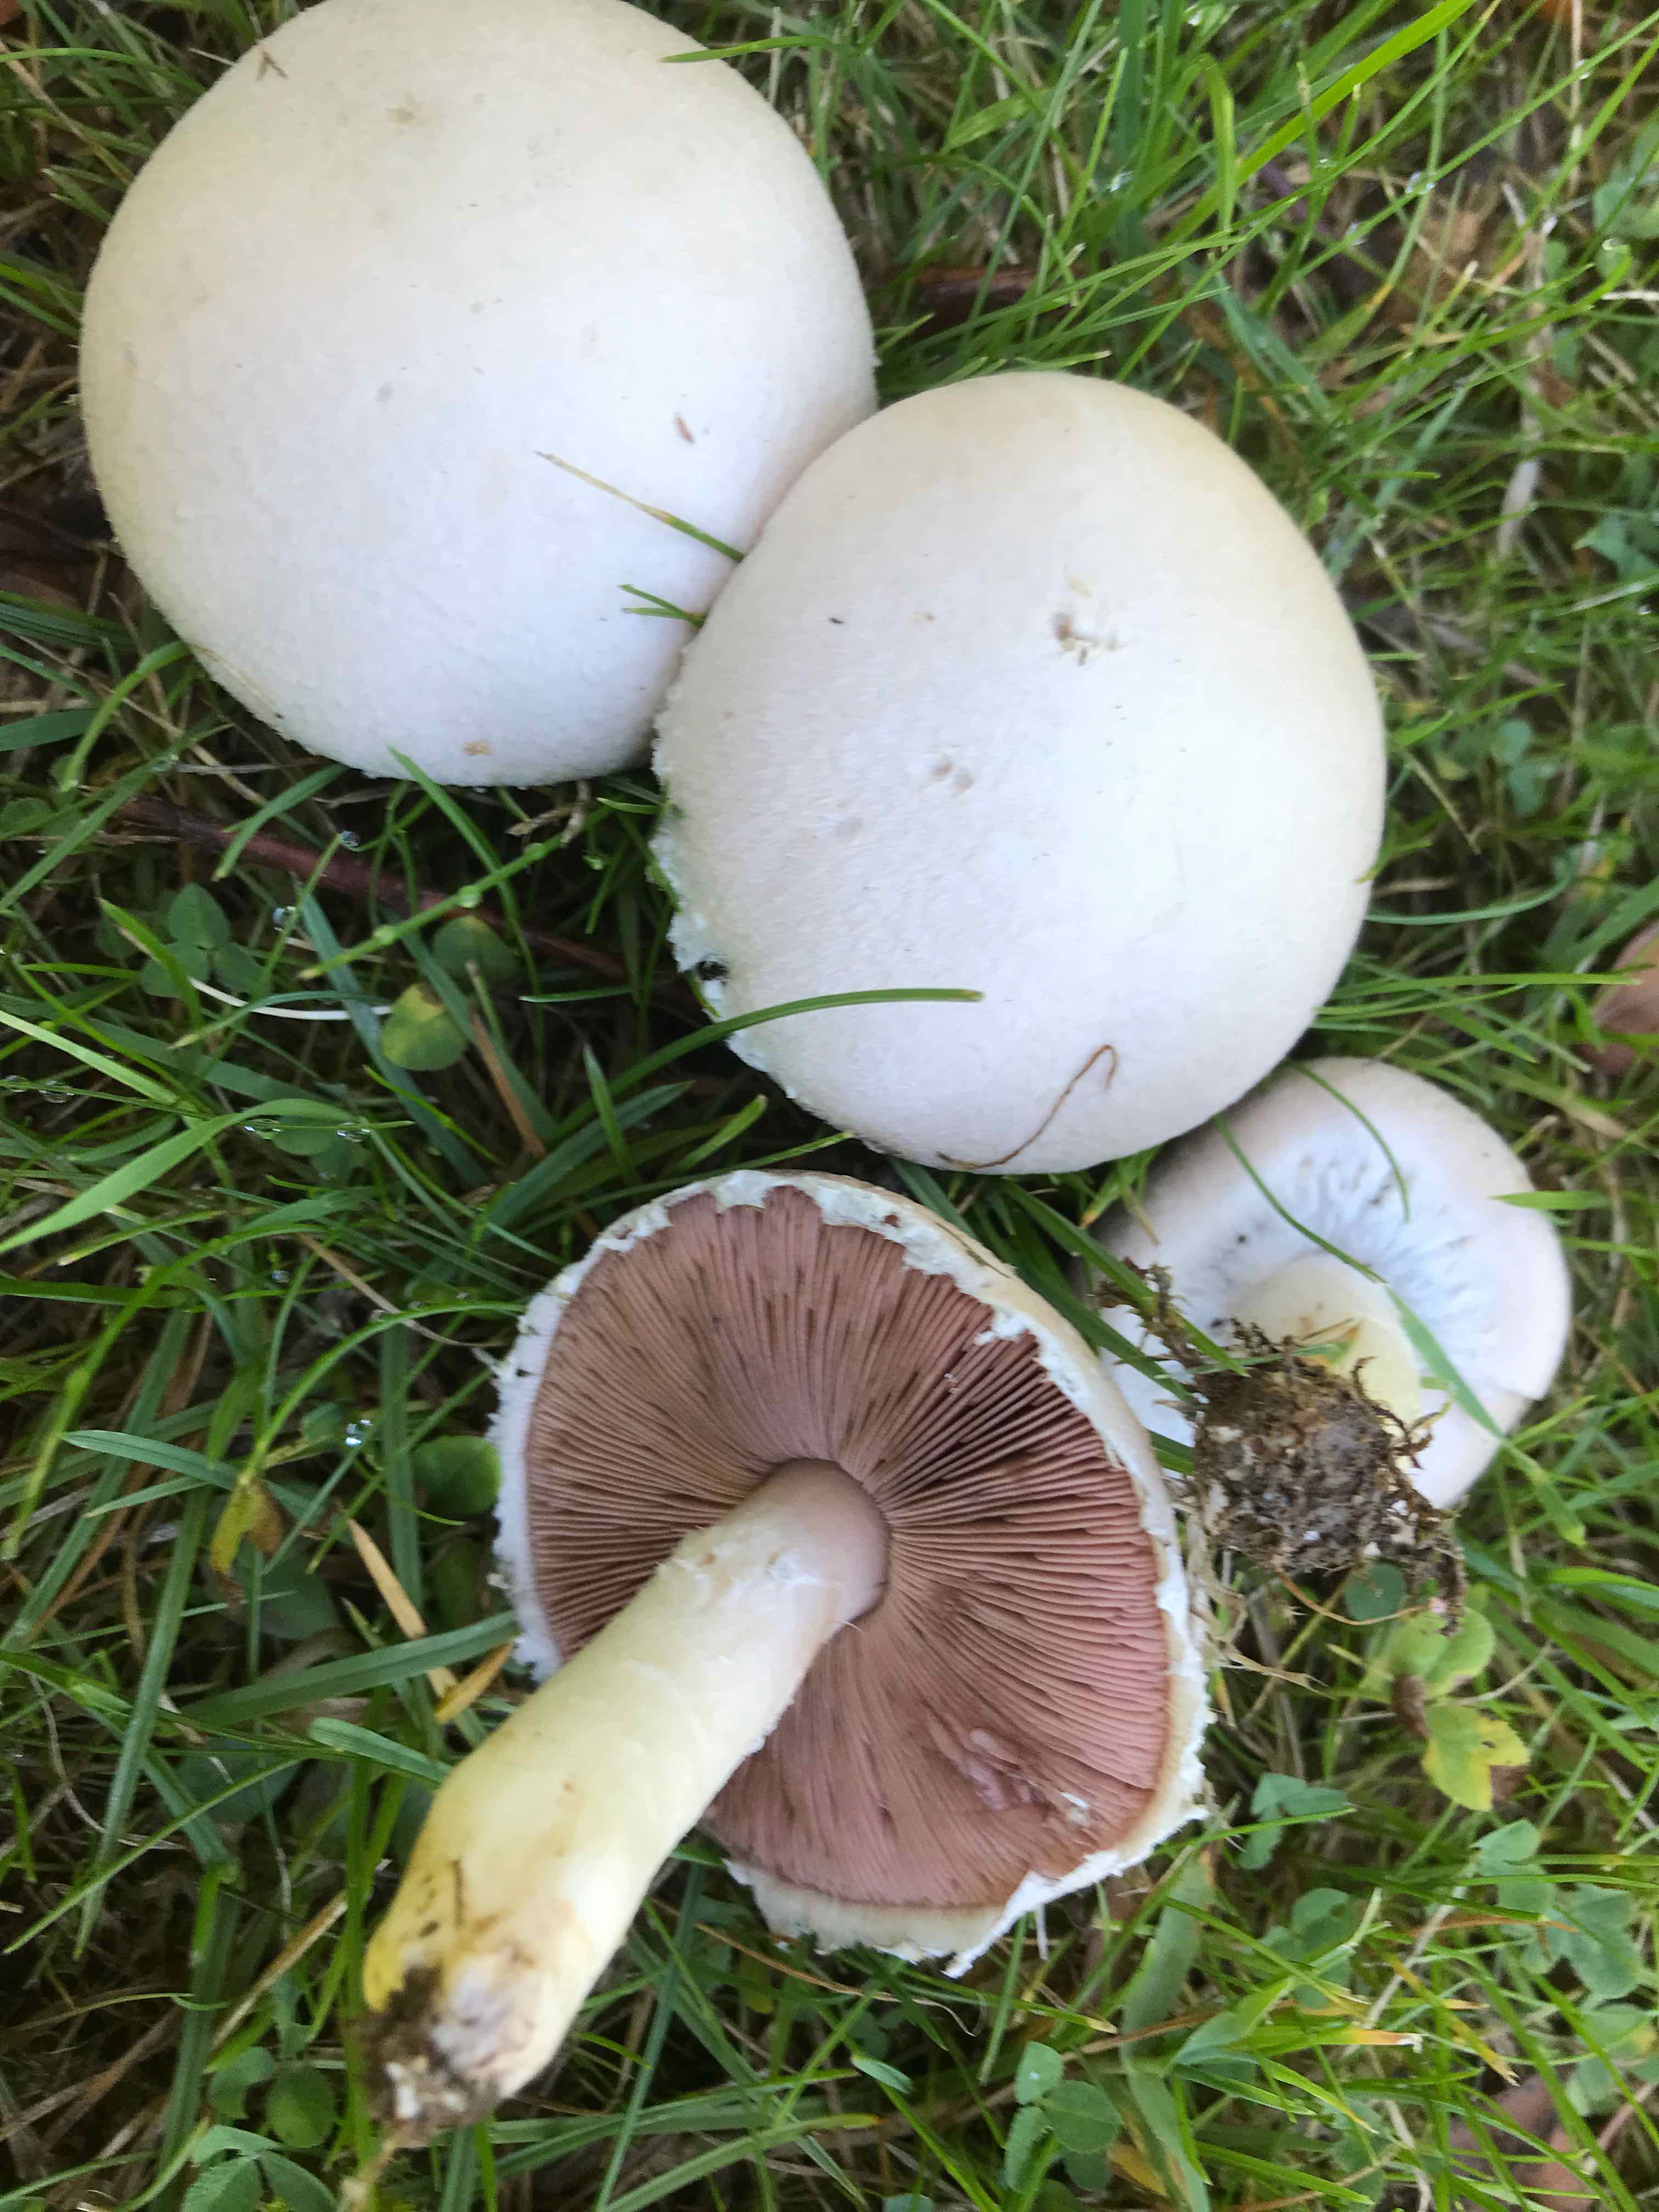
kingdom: Fungi
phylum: Basidiomycota
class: Agaricomycetes
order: Agaricales
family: Agaricaceae
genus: Agaricus
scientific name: Agaricus campestris
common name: mark-champignon
